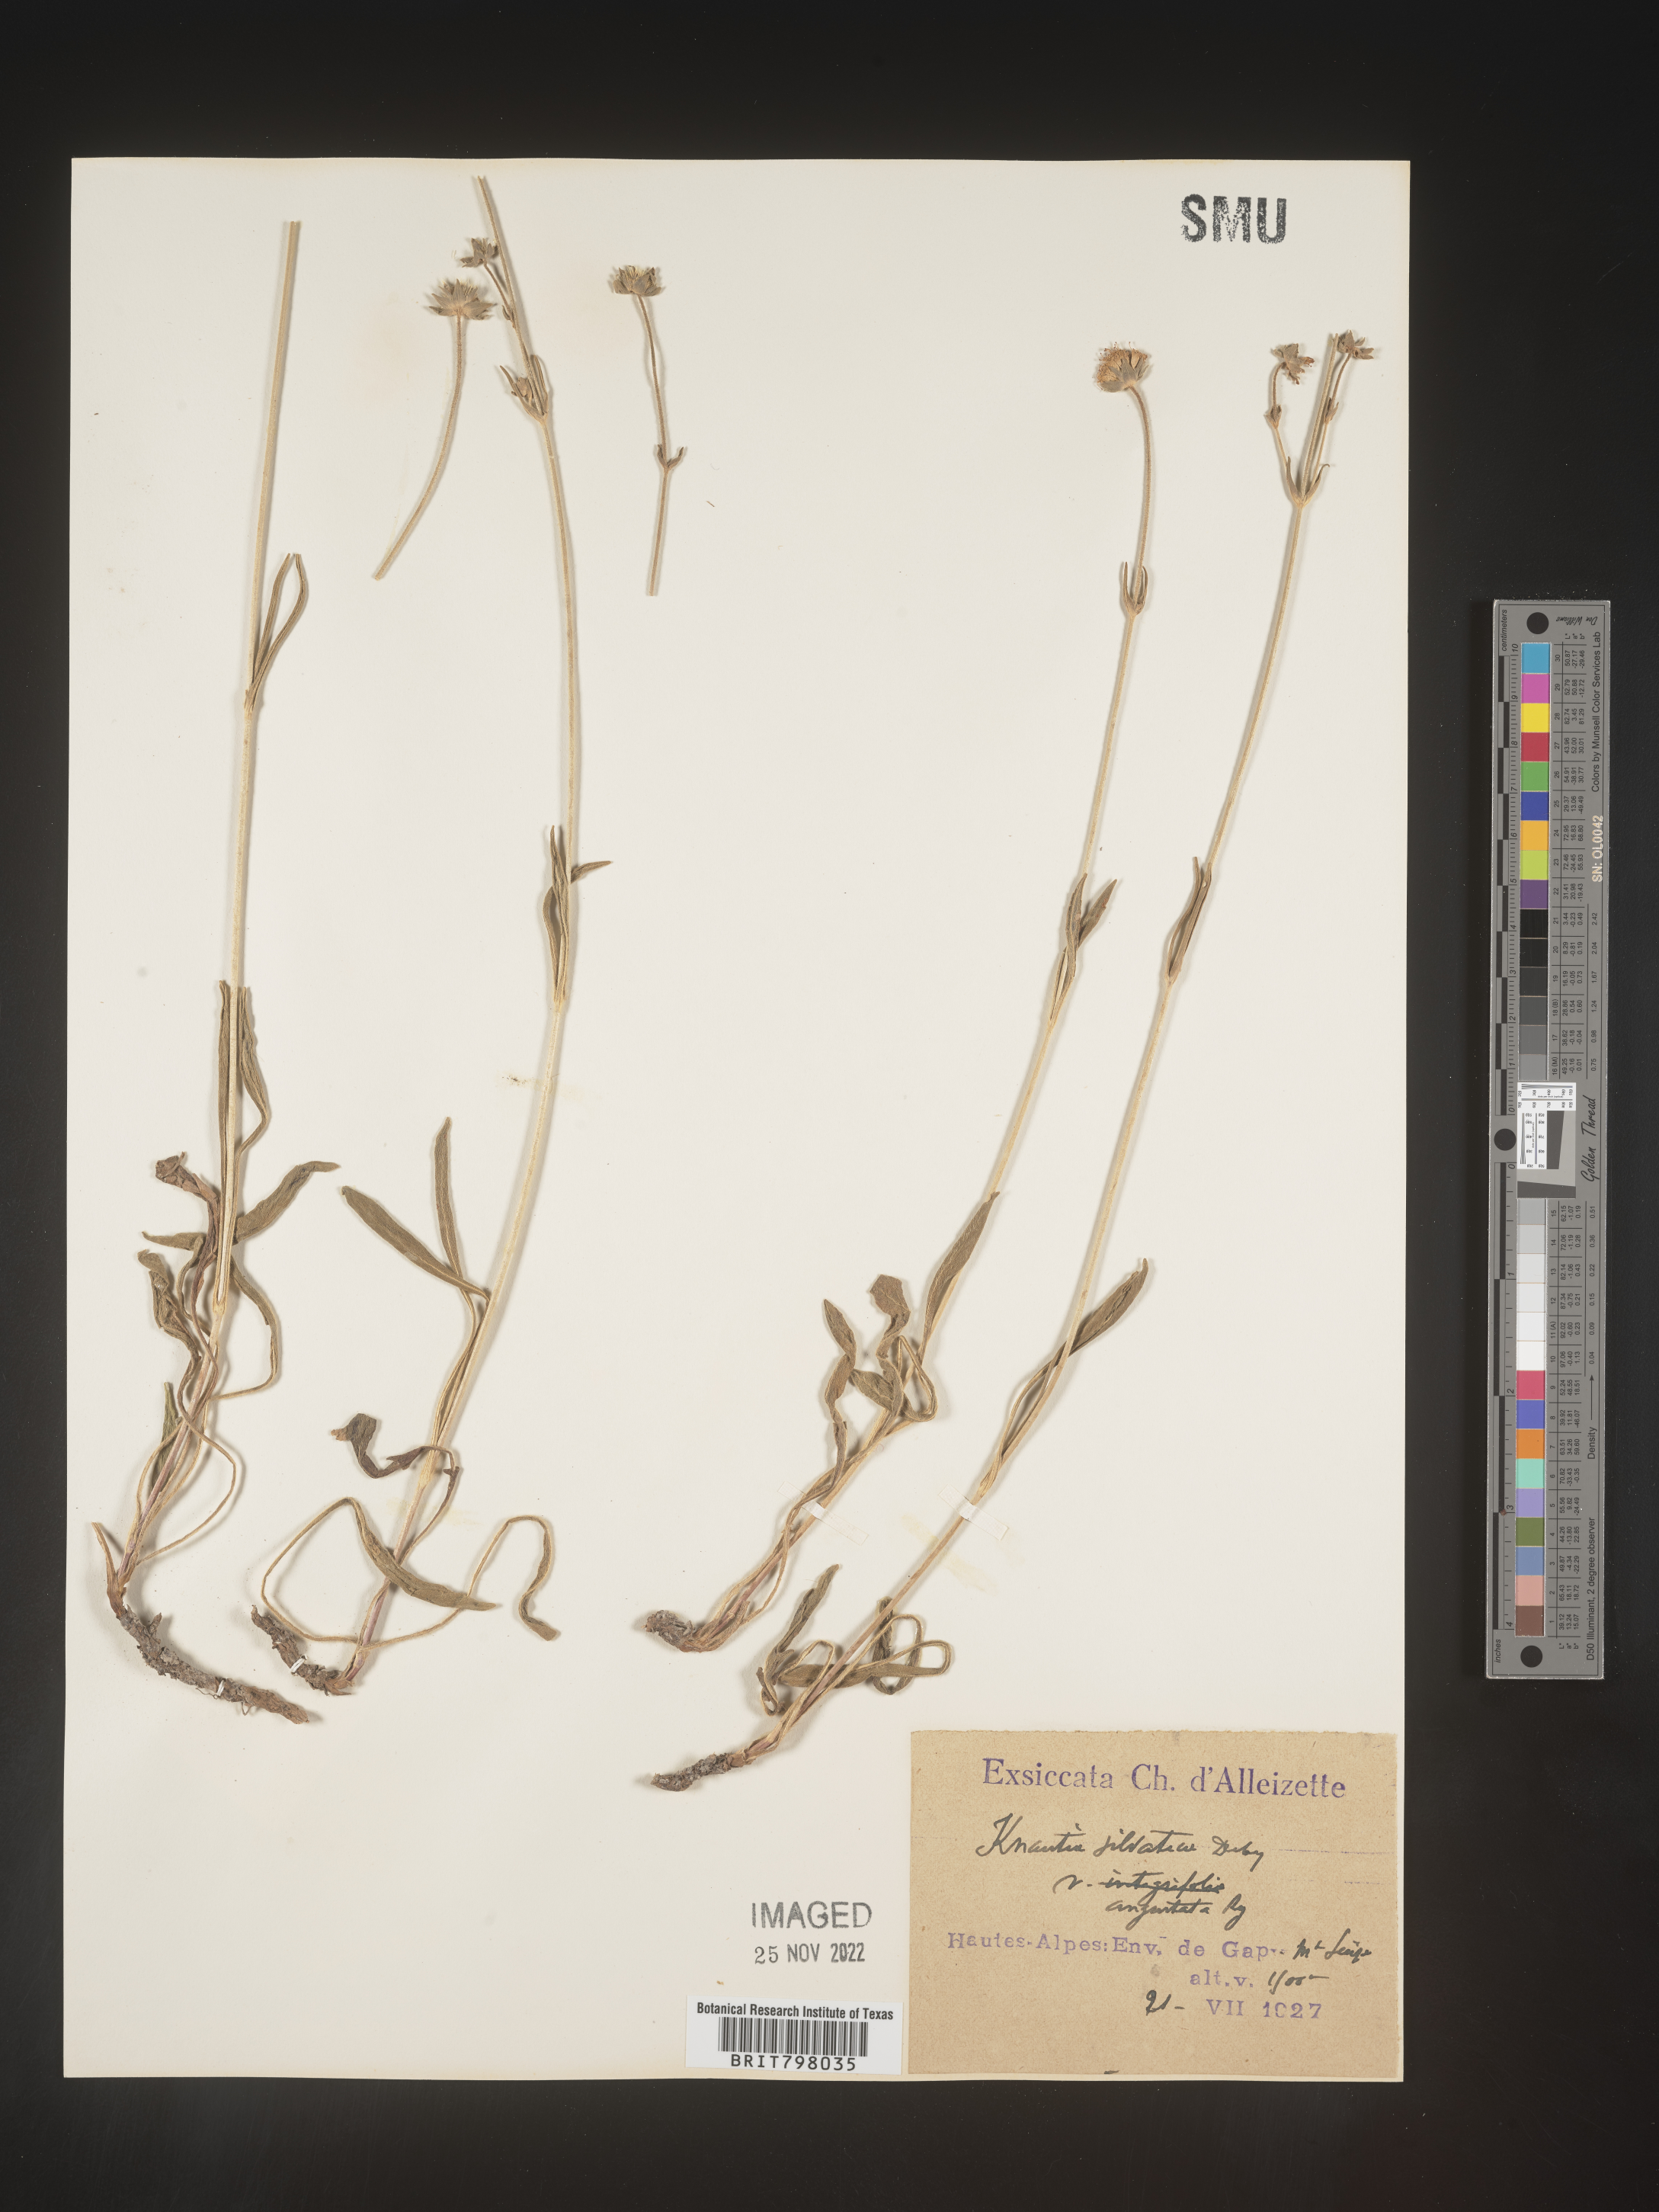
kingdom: Plantae
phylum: Tracheophyta
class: Magnoliopsida
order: Dipsacales
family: Caprifoliaceae
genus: Knautia
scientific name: Knautia
